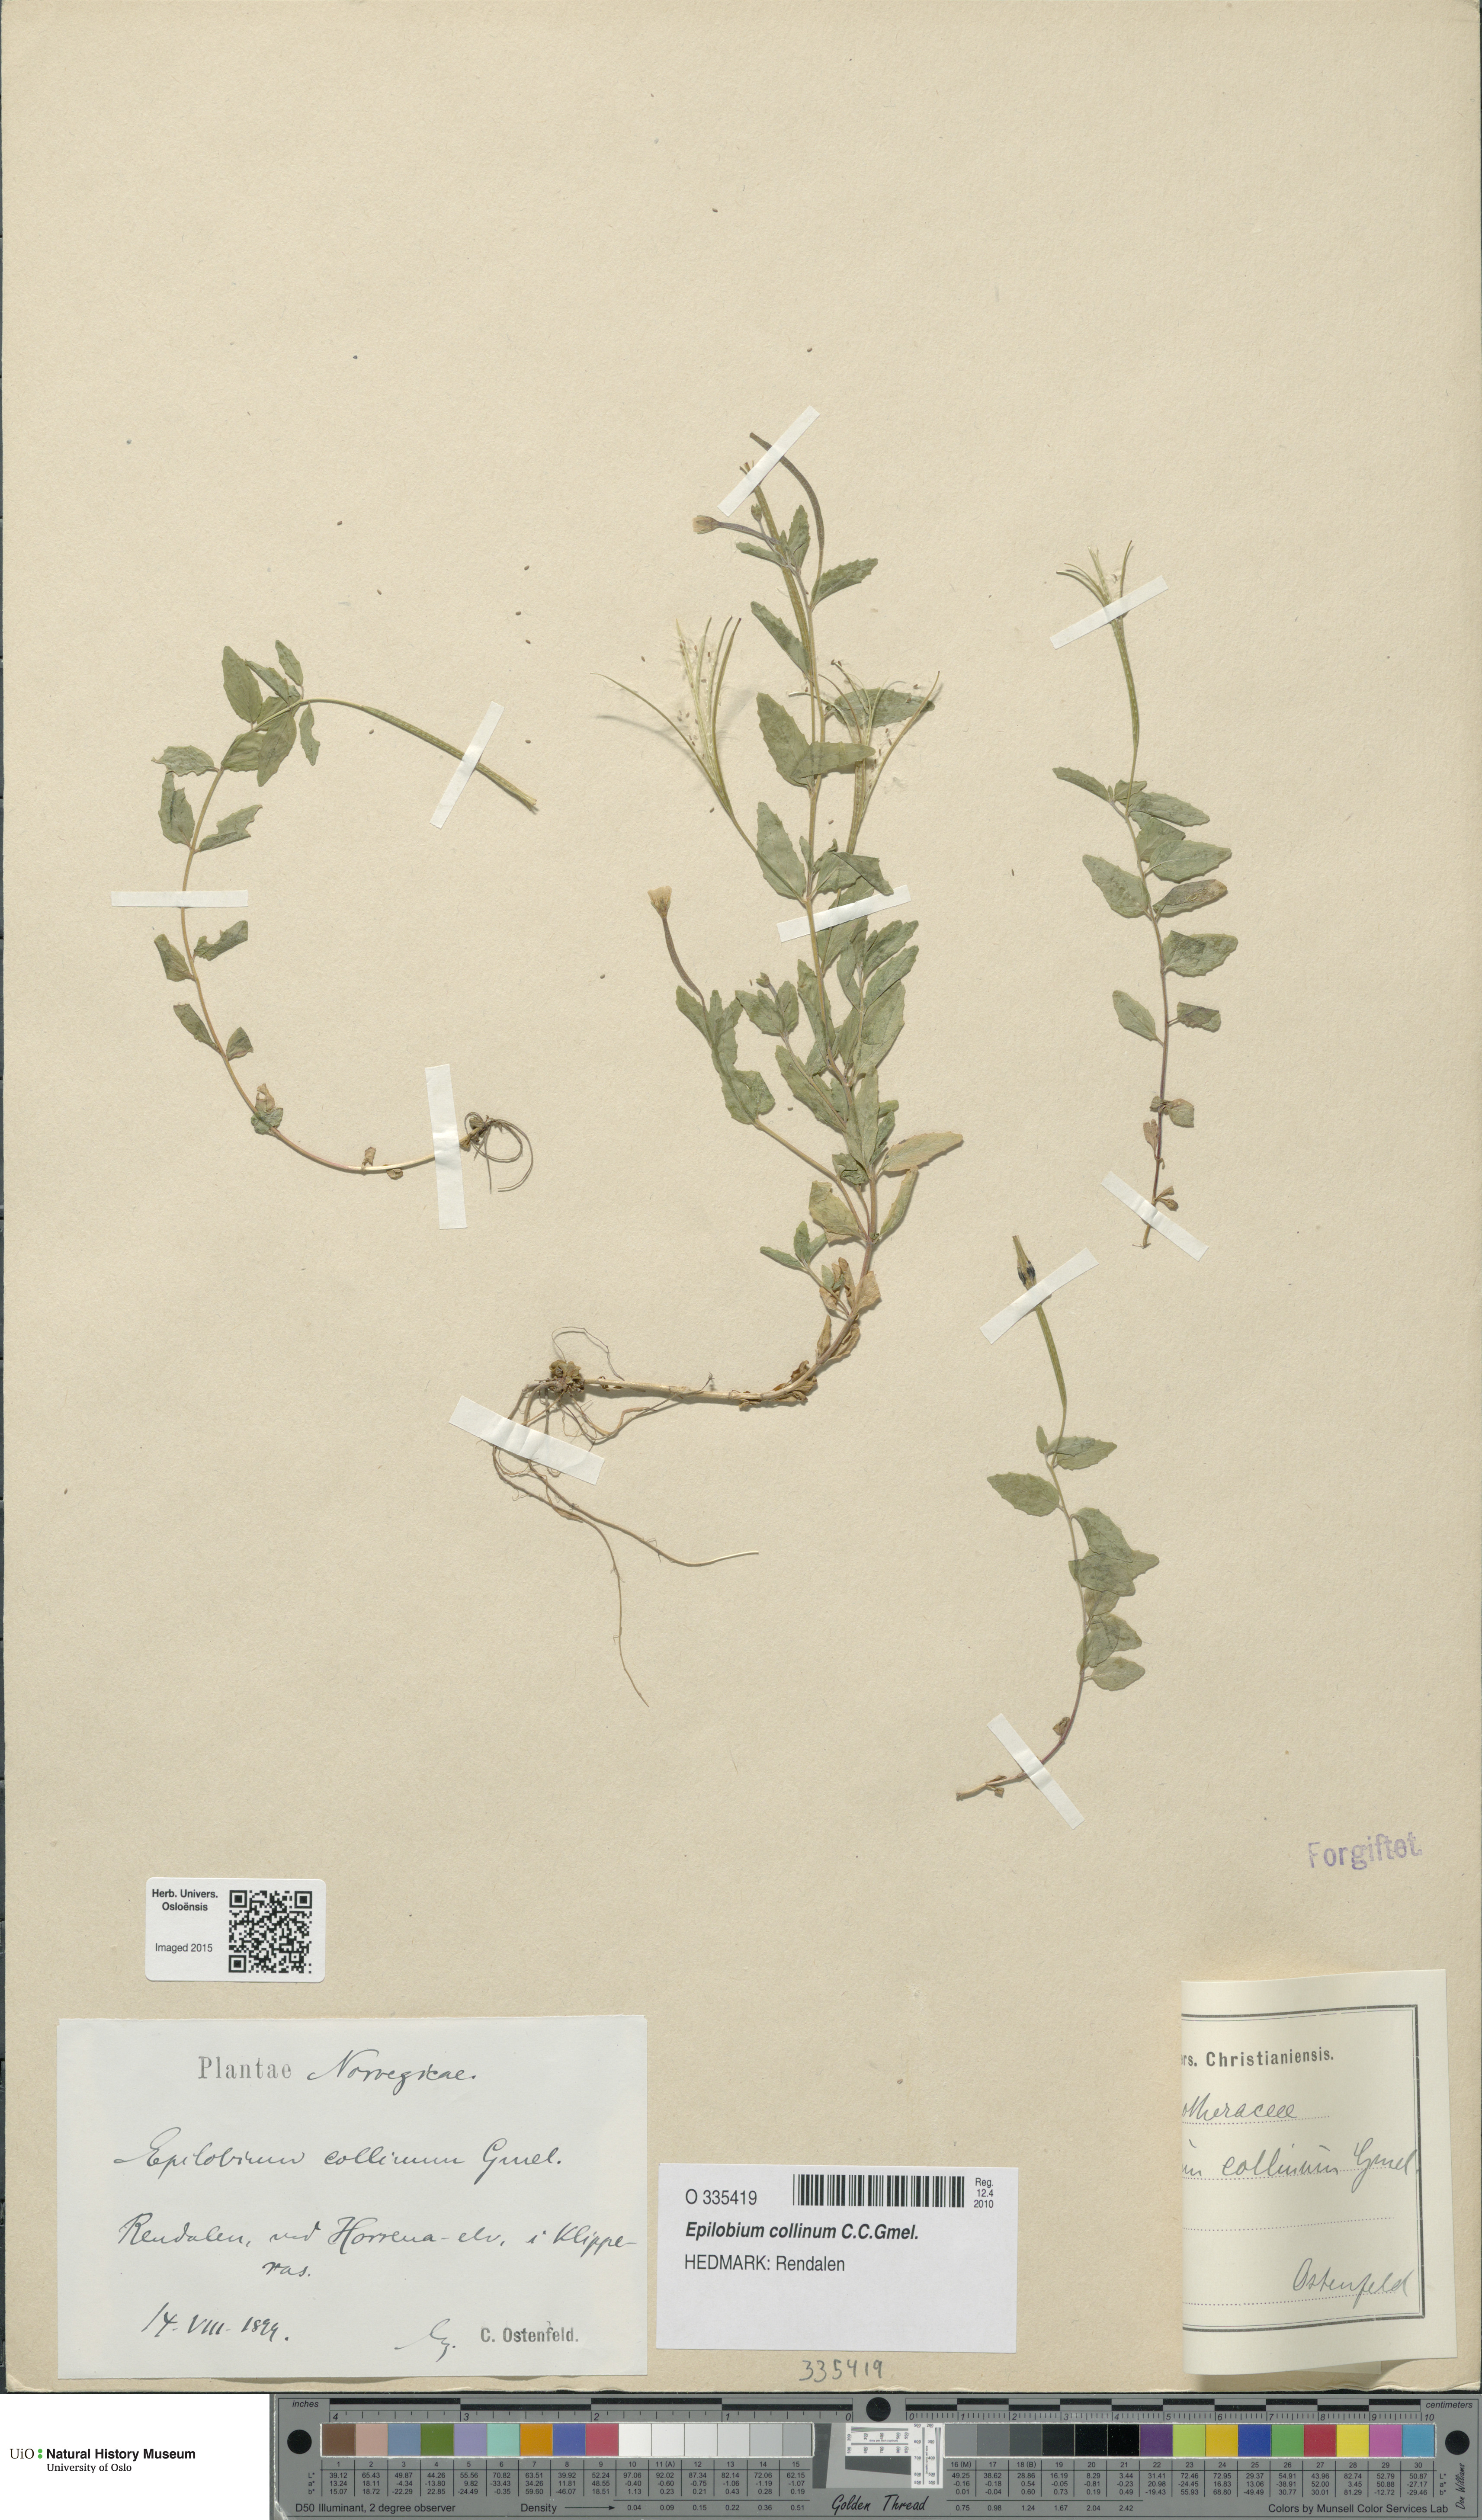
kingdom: Plantae
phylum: Tracheophyta
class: Magnoliopsida
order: Myrtales
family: Onagraceae
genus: Epilobium
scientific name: Epilobium collinum
